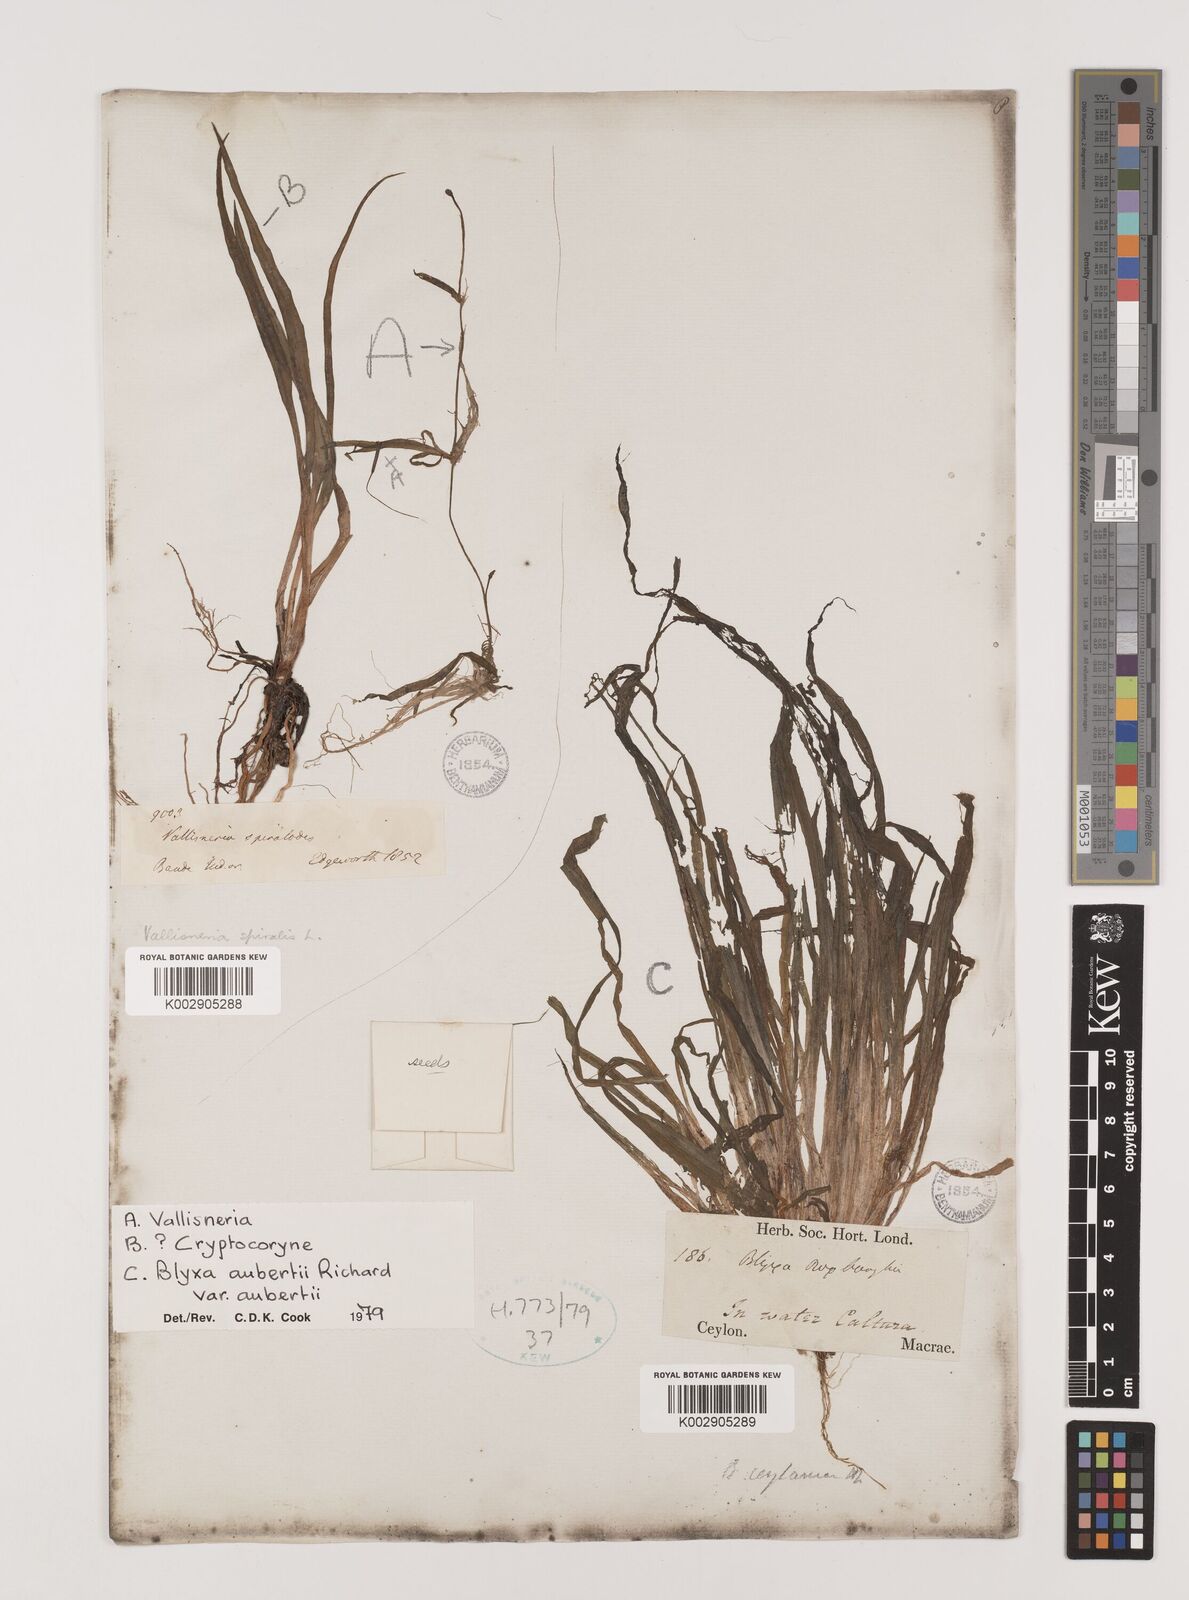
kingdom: Plantae
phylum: Tracheophyta
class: Liliopsida
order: Alismatales
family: Hydrocharitaceae
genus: Blyxa
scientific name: Blyxa aubertii
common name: Roundfruit blyxa
